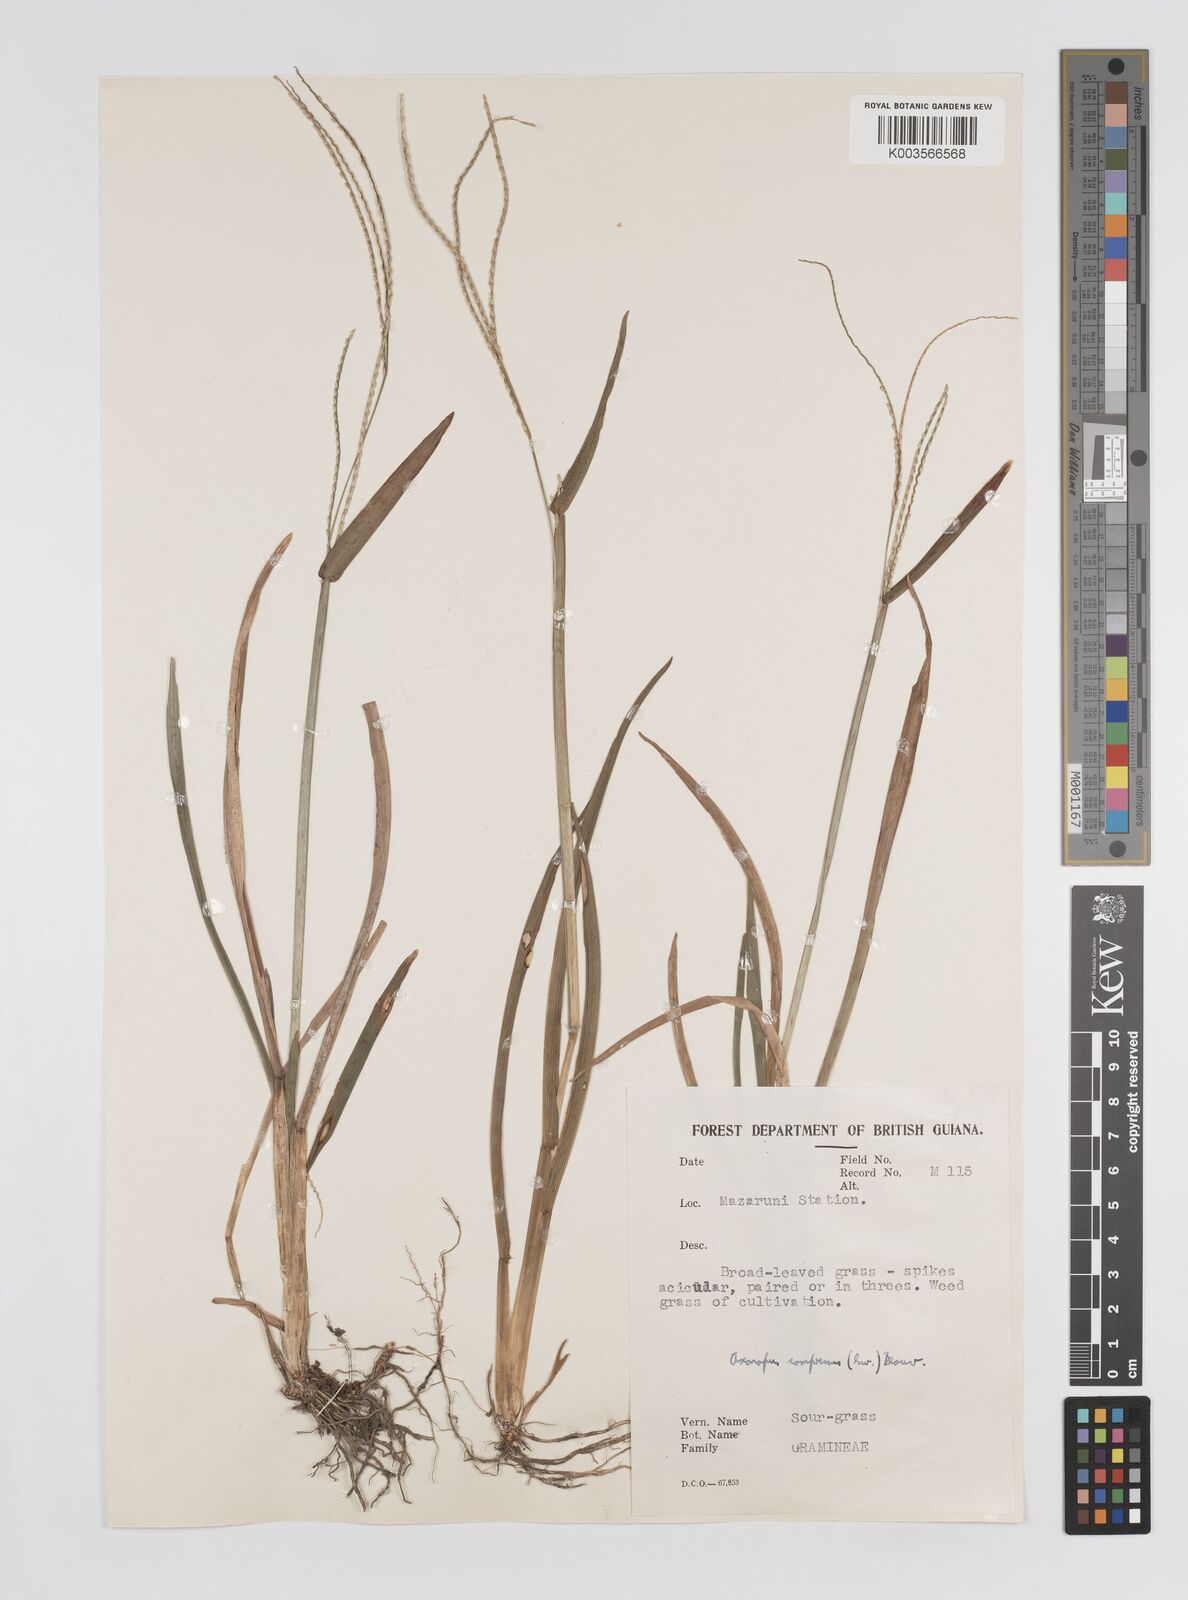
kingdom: Plantae
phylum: Tracheophyta
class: Liliopsida
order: Poales
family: Poaceae
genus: Axonopus
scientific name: Axonopus compressus
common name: American carpet grass
